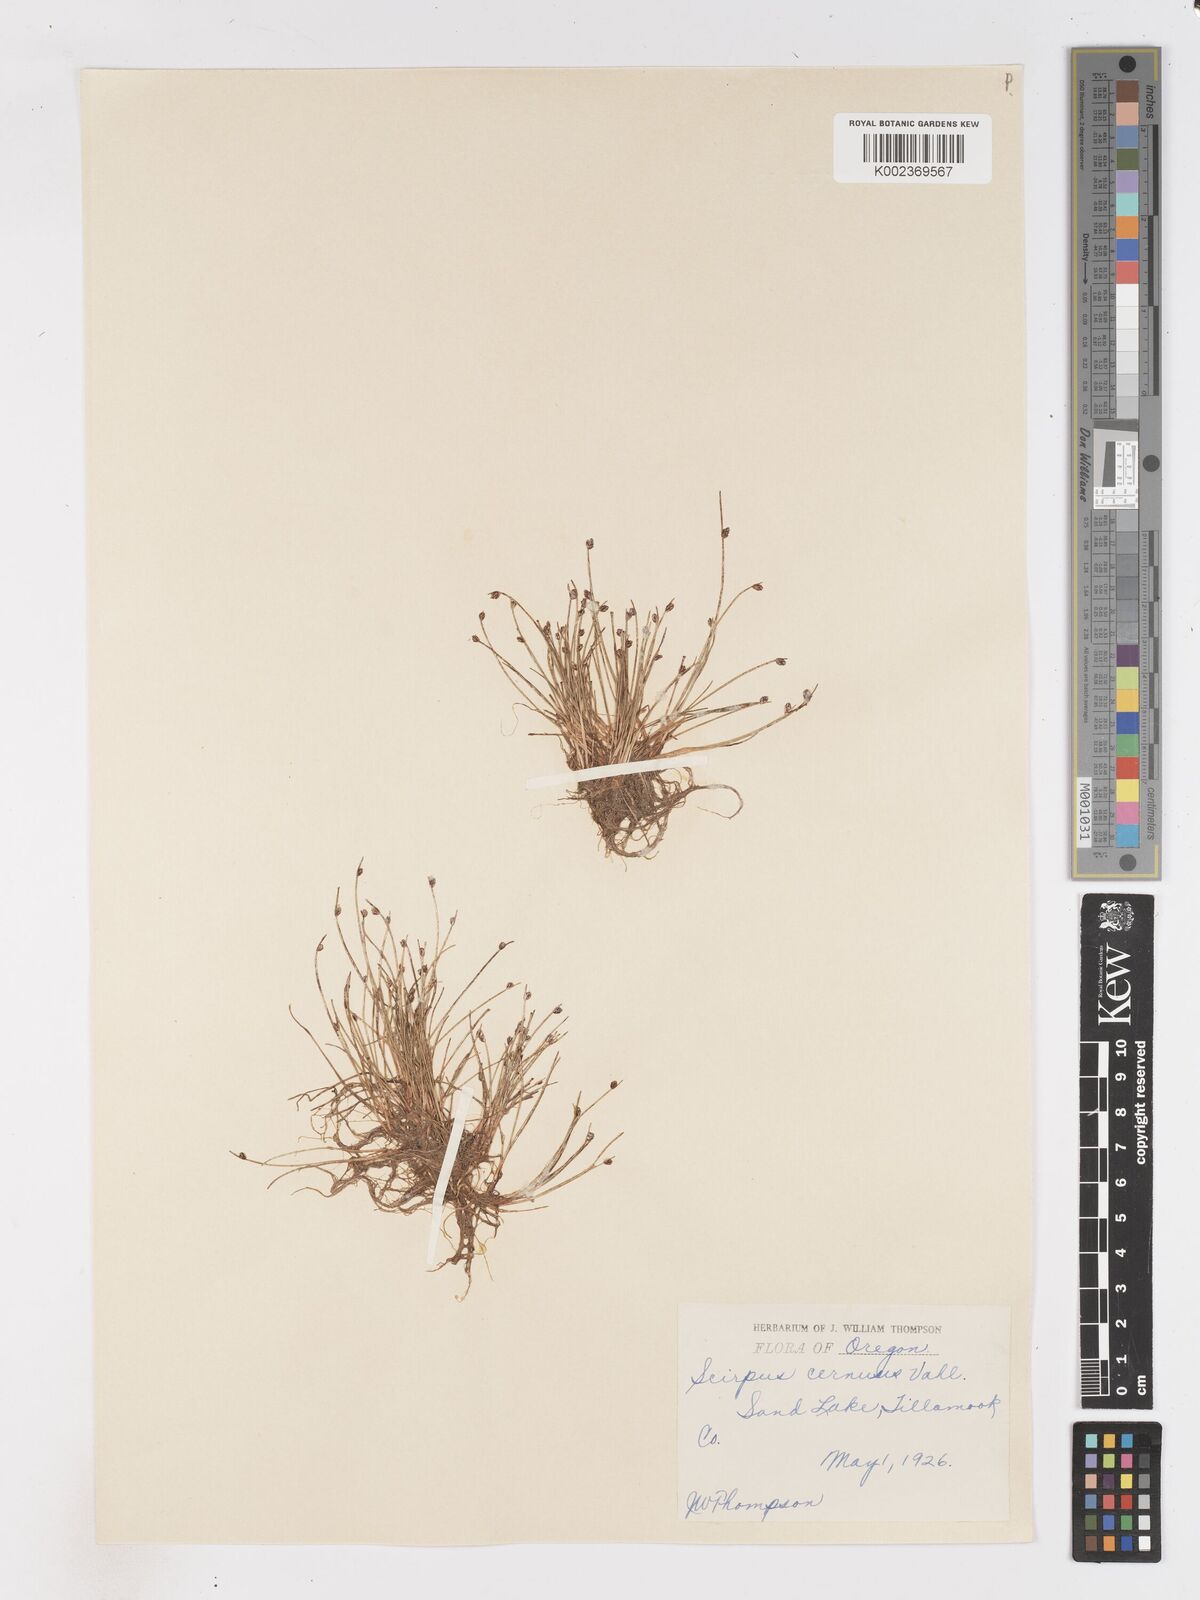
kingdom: Plantae
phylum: Tracheophyta
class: Liliopsida
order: Poales
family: Cyperaceae
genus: Isolepis
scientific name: Isolepis cernua
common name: Slender club-rush
